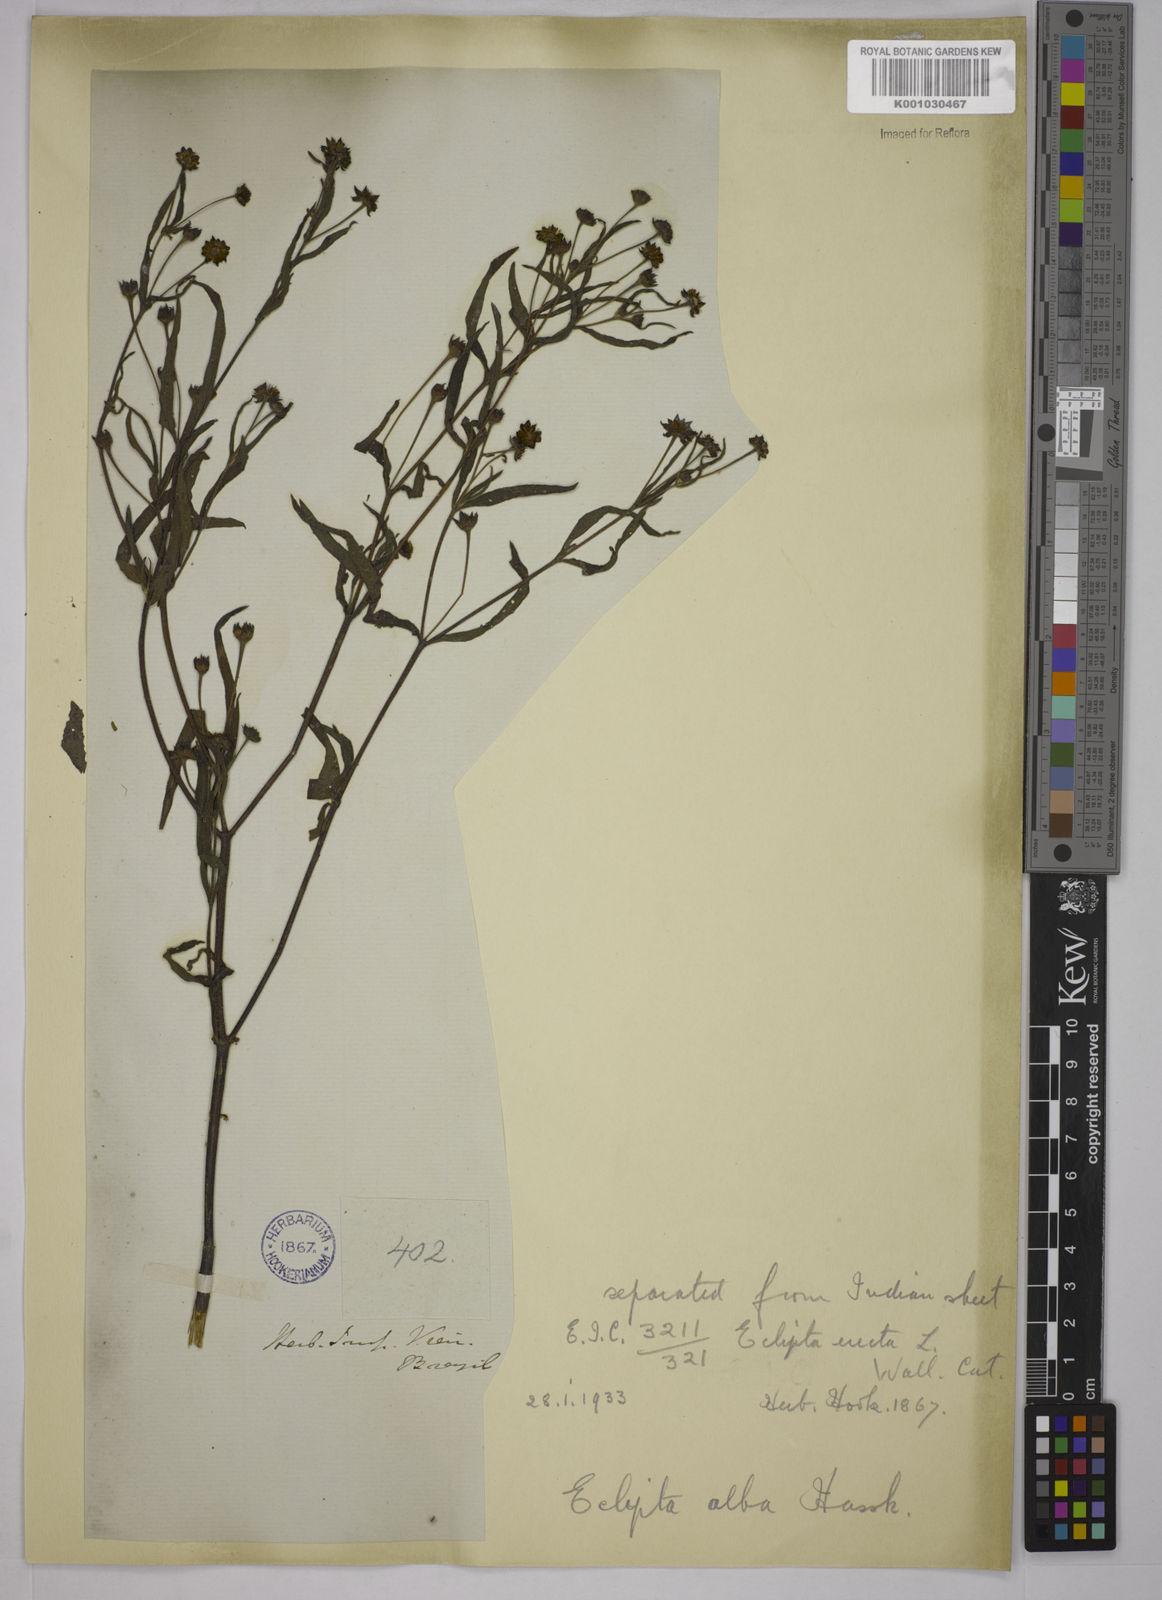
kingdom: Plantae
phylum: Tracheophyta
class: Magnoliopsida
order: Asterales
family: Asteraceae
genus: Eclipta
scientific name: Eclipta prostrata
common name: False daisy
